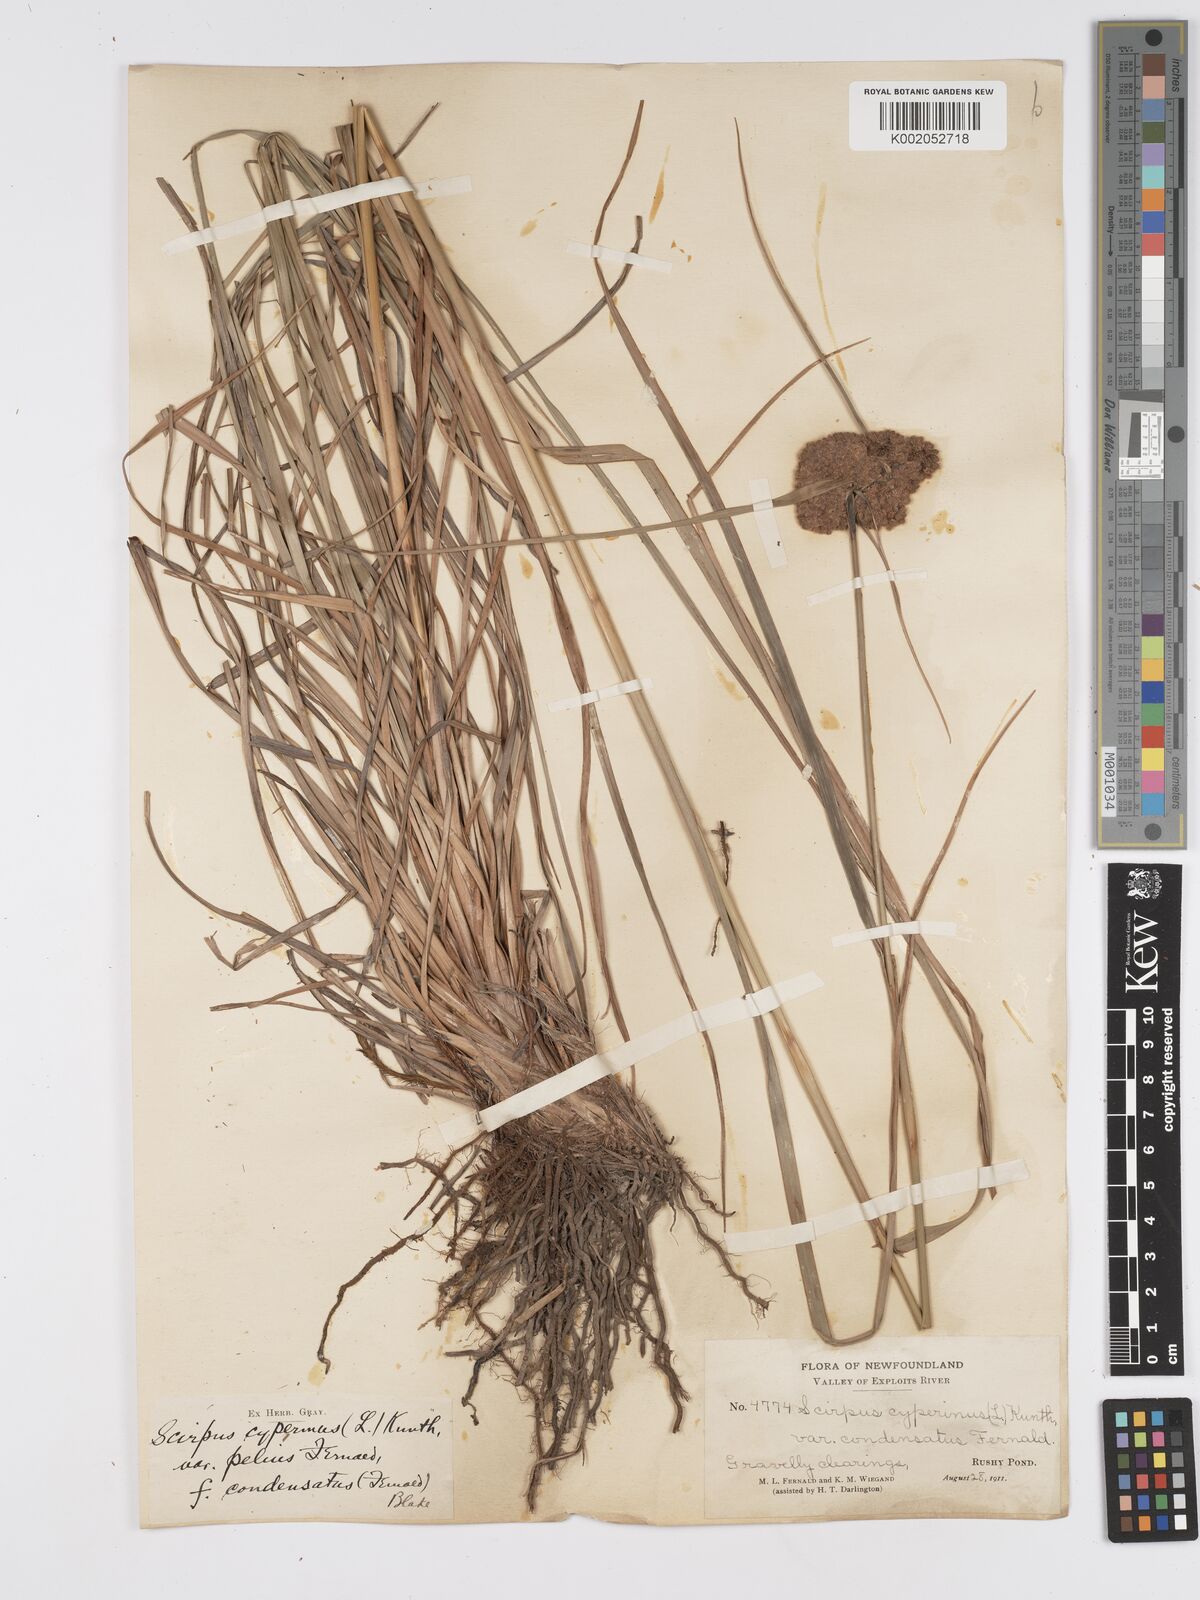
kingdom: Plantae
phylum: Tracheophyta
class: Liliopsida
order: Poales
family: Cyperaceae
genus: Scirpus
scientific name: Scirpus cyperinus
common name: Black-sheathed bulrush
